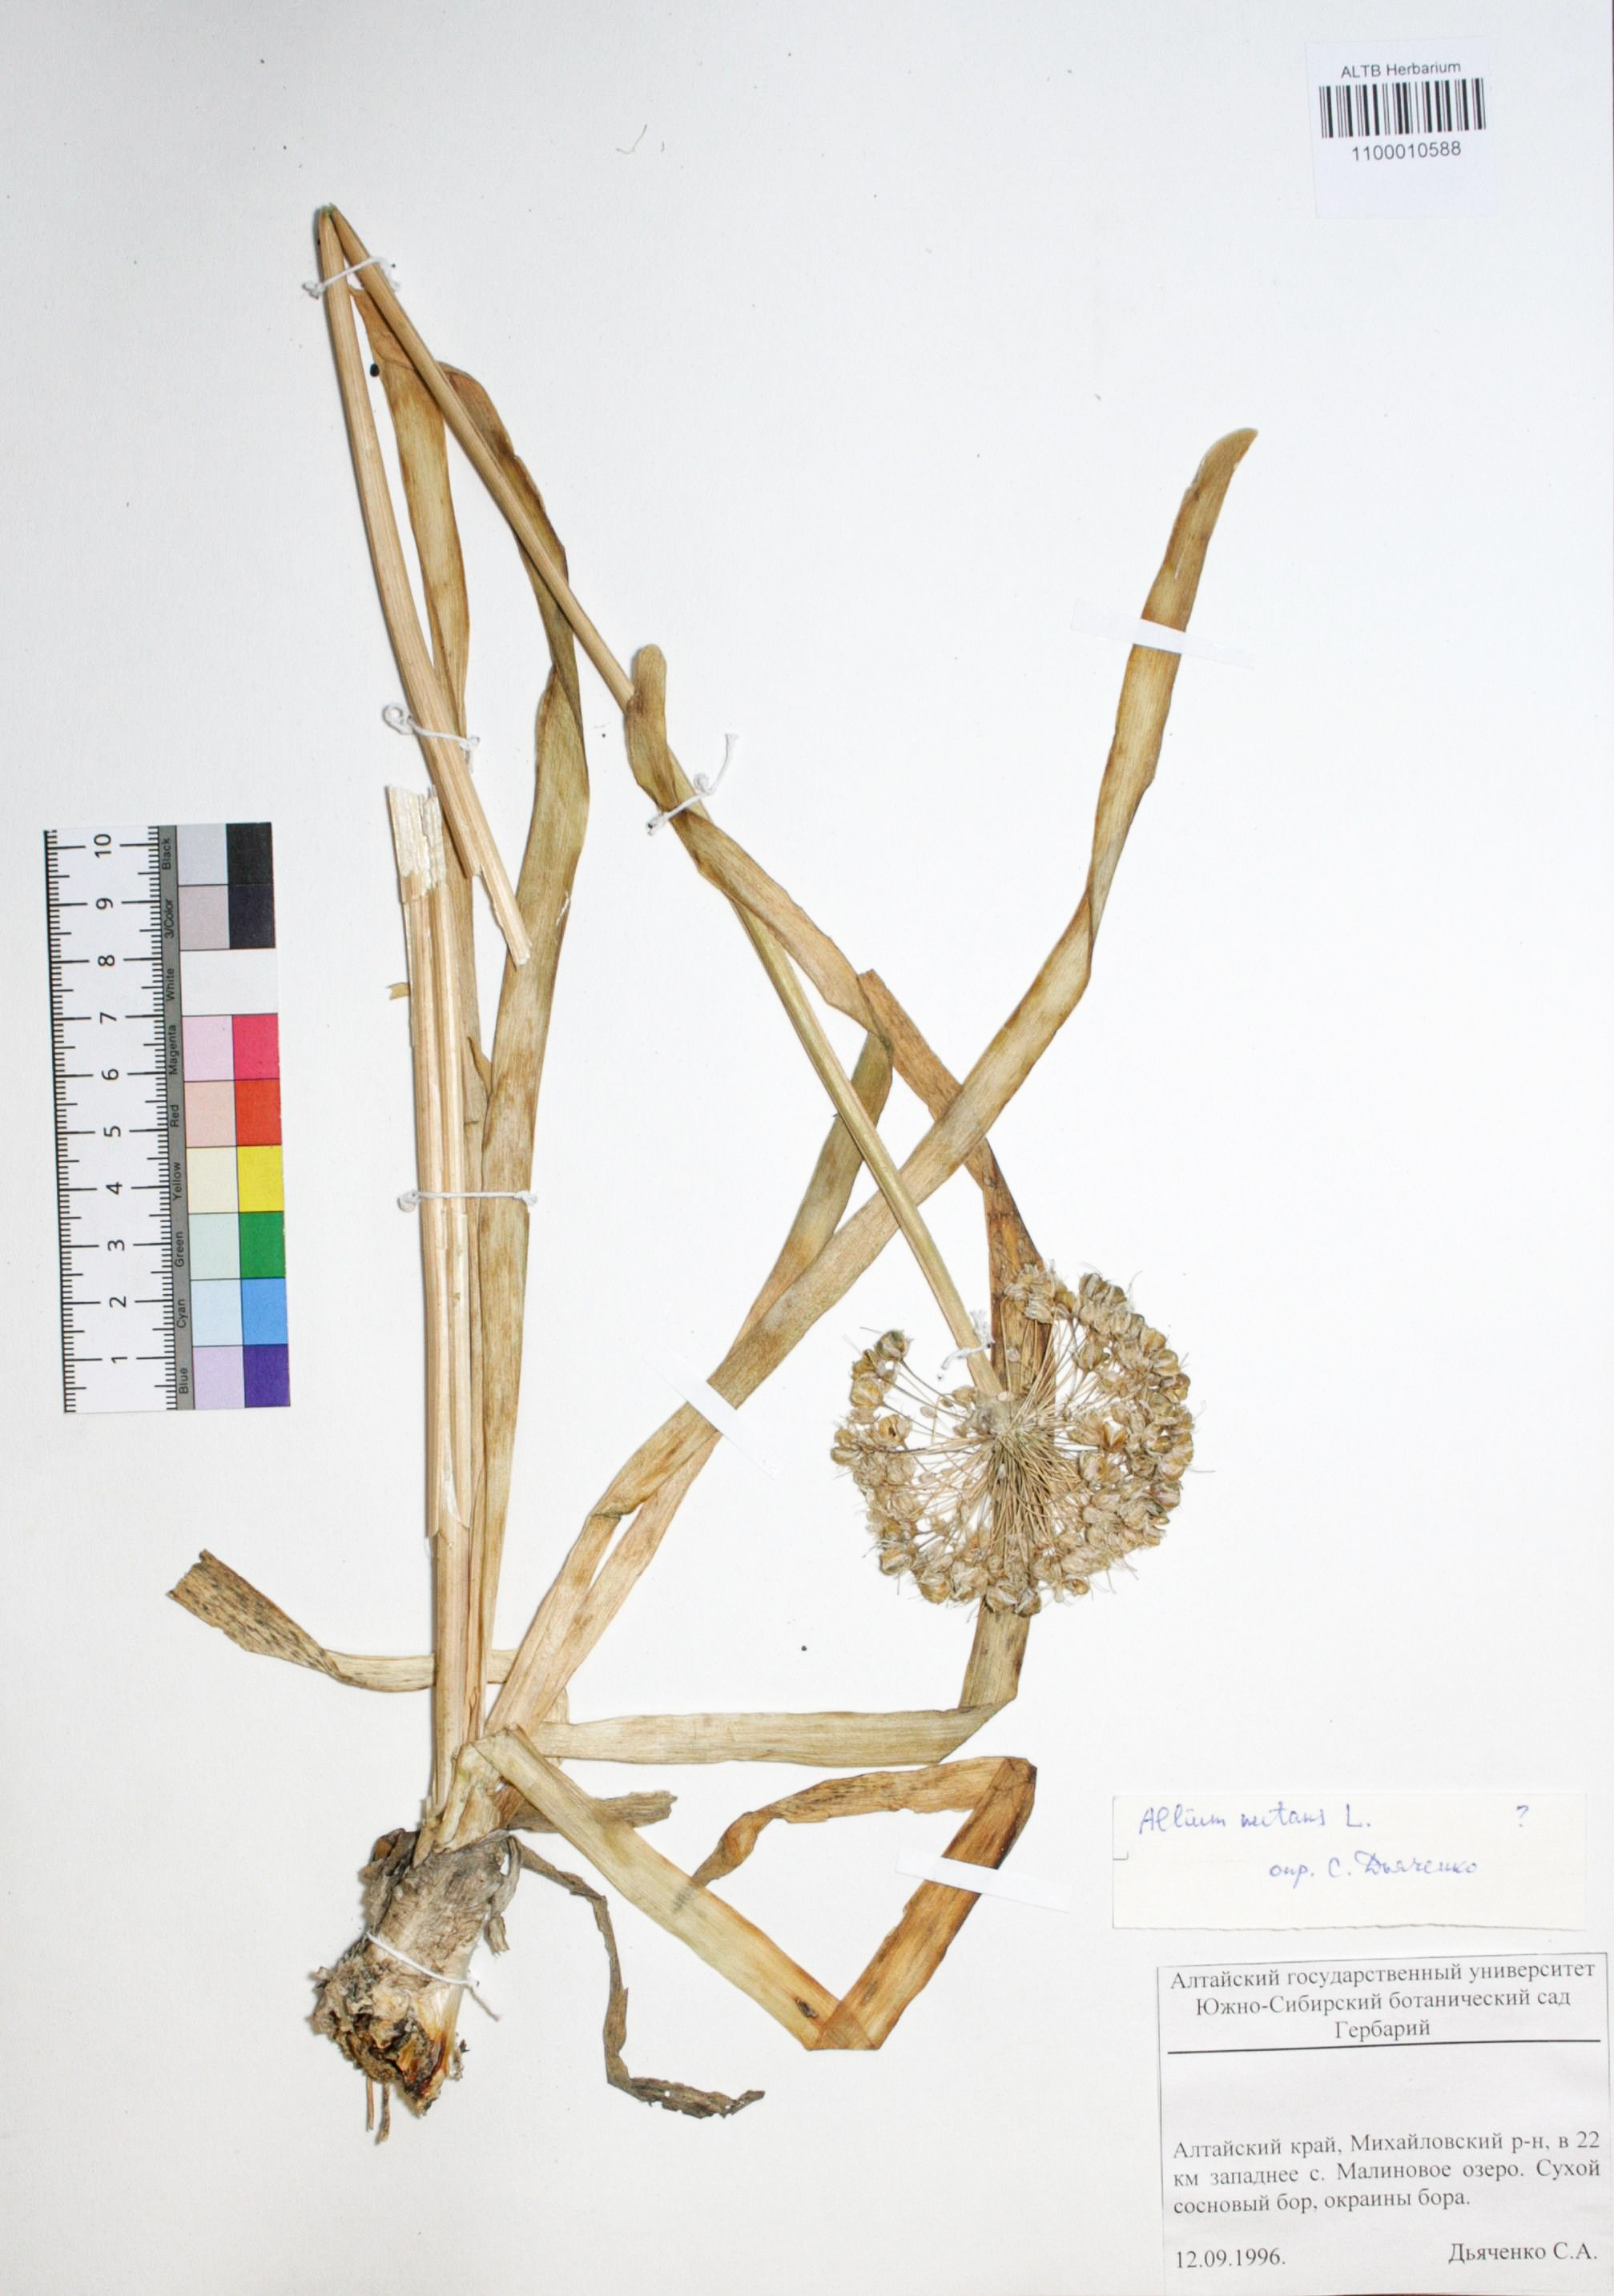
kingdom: Plantae
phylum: Tracheophyta
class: Liliopsida
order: Asparagales
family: Amaryllidaceae
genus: Allium
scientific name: Allium nutans
